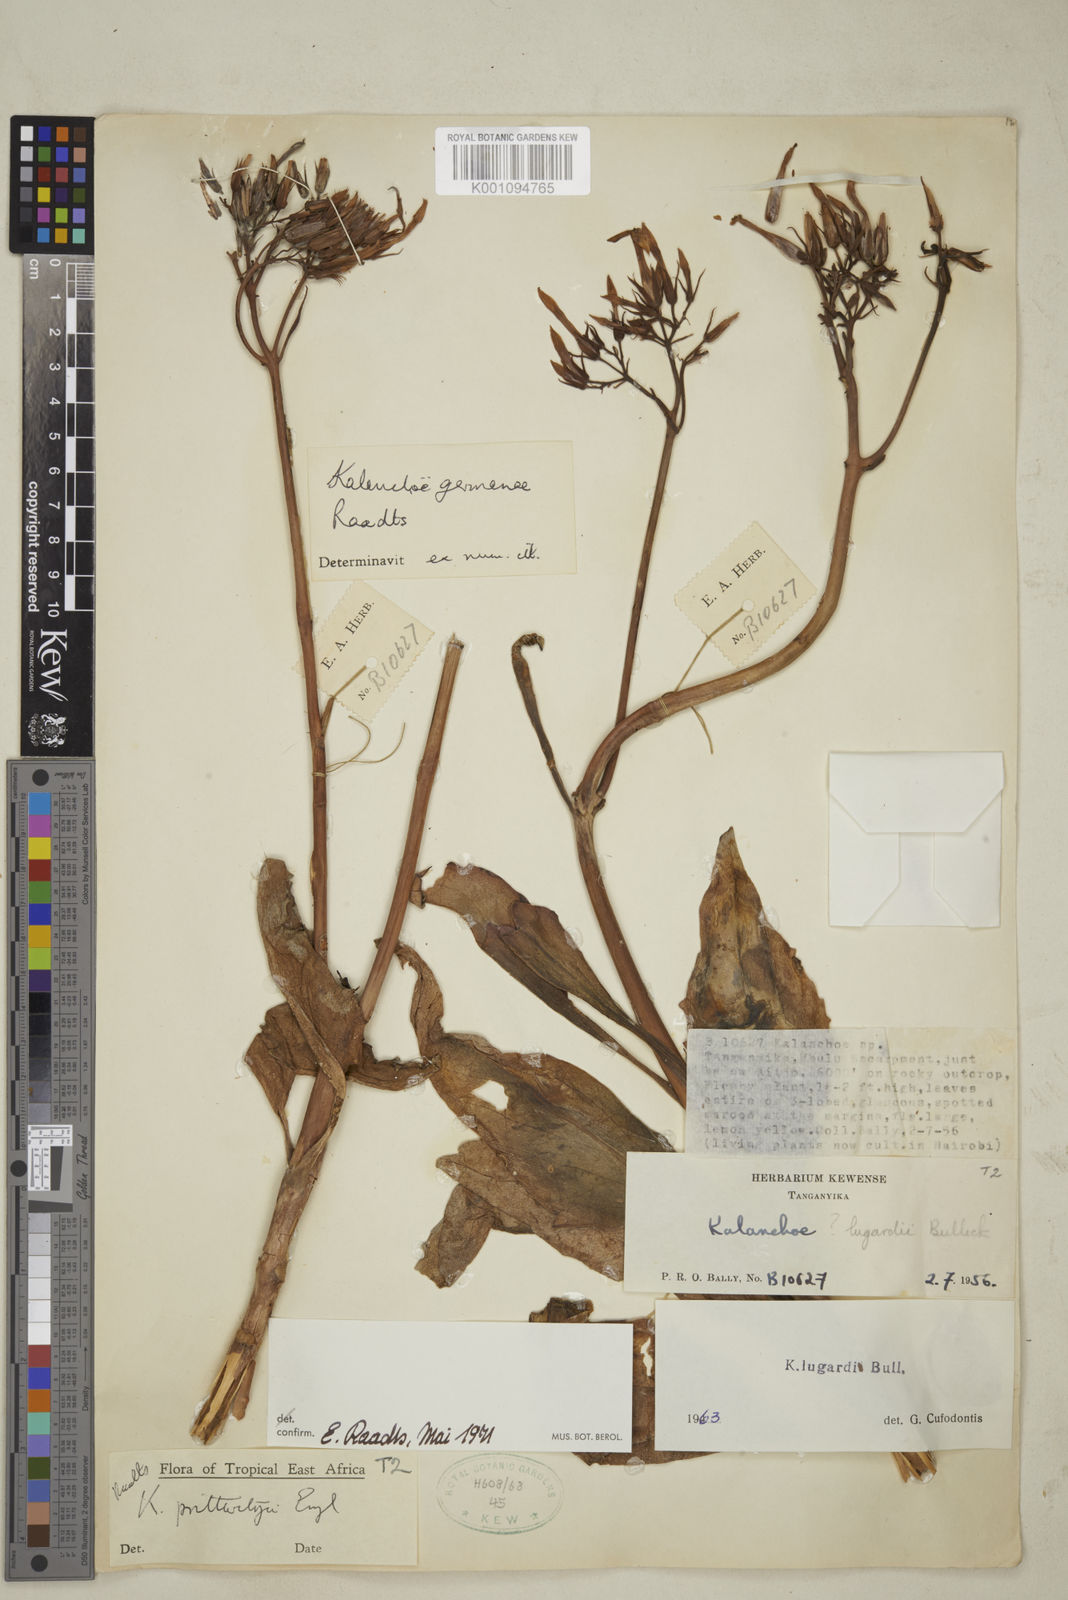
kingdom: Plantae
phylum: Tracheophyta
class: Magnoliopsida
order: Saxifragales
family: Crassulaceae
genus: Kalanchoe
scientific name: Kalanchoe germanae
